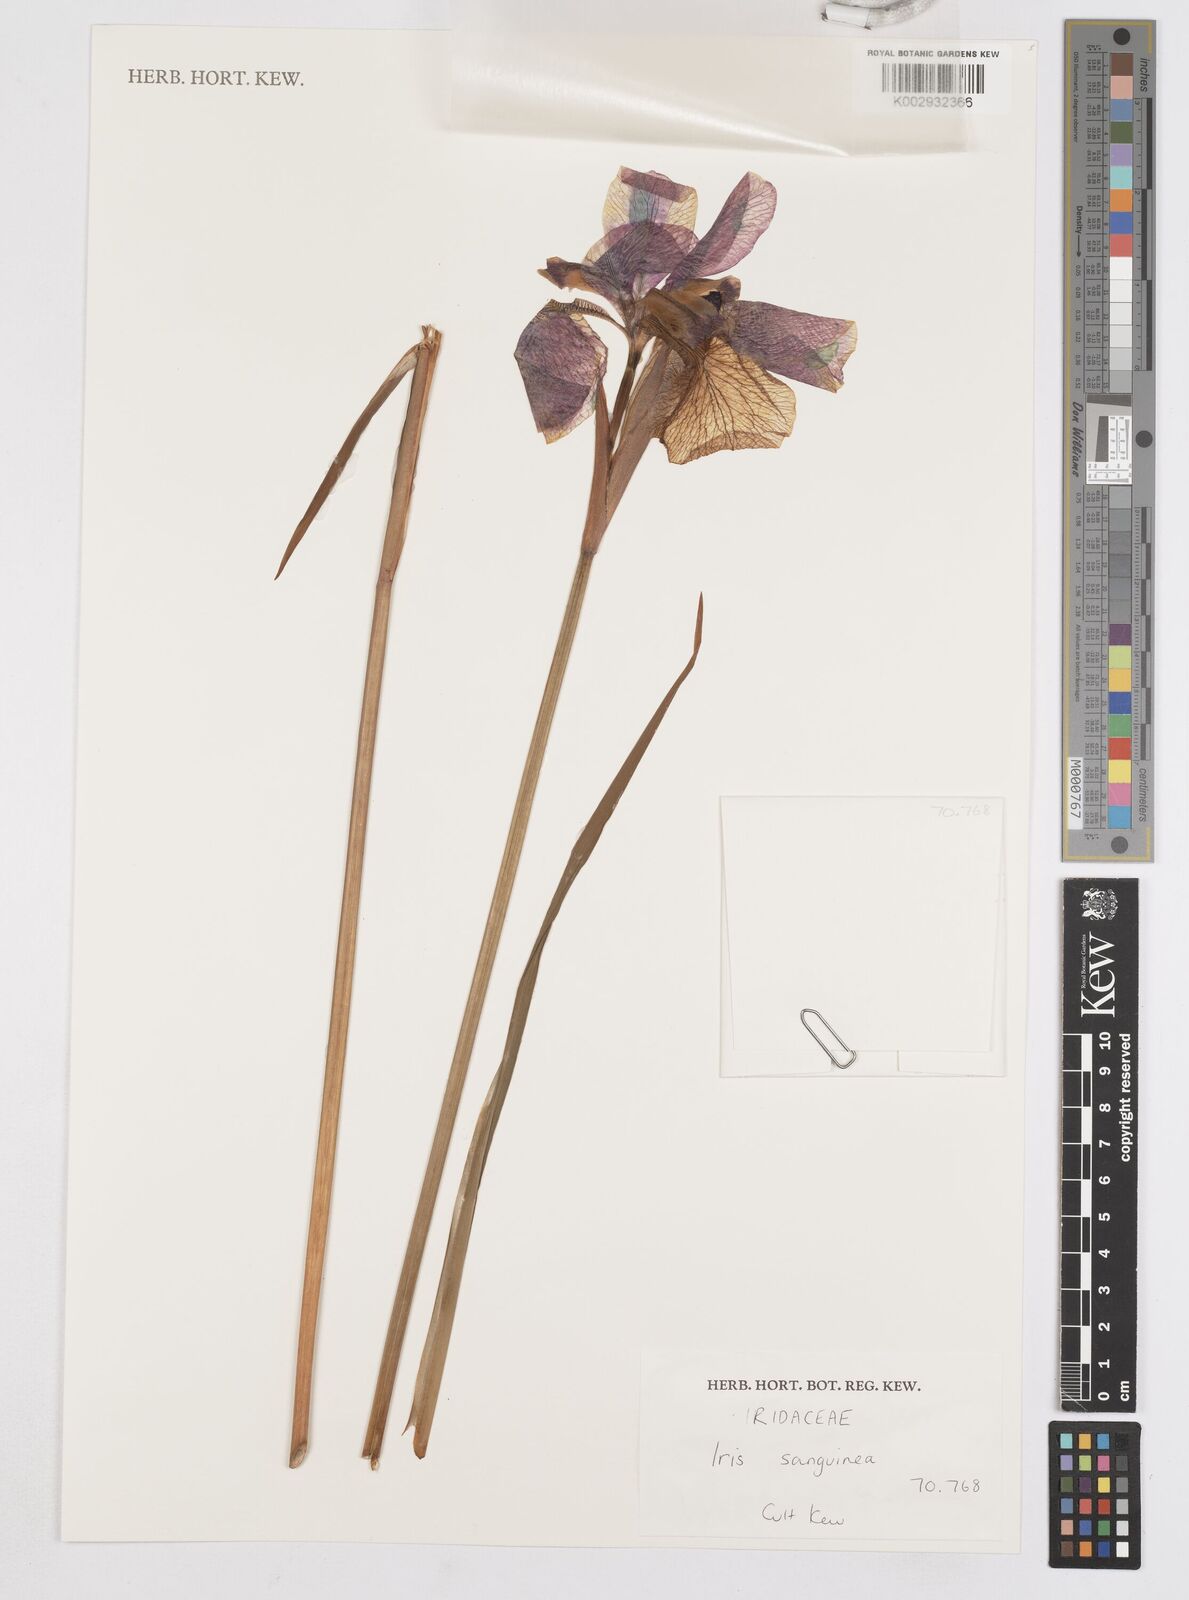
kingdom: Plantae
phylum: Tracheophyta
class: Liliopsida
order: Asparagales
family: Iridaceae
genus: Iris
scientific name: Iris sanguinea
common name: Blood iris
